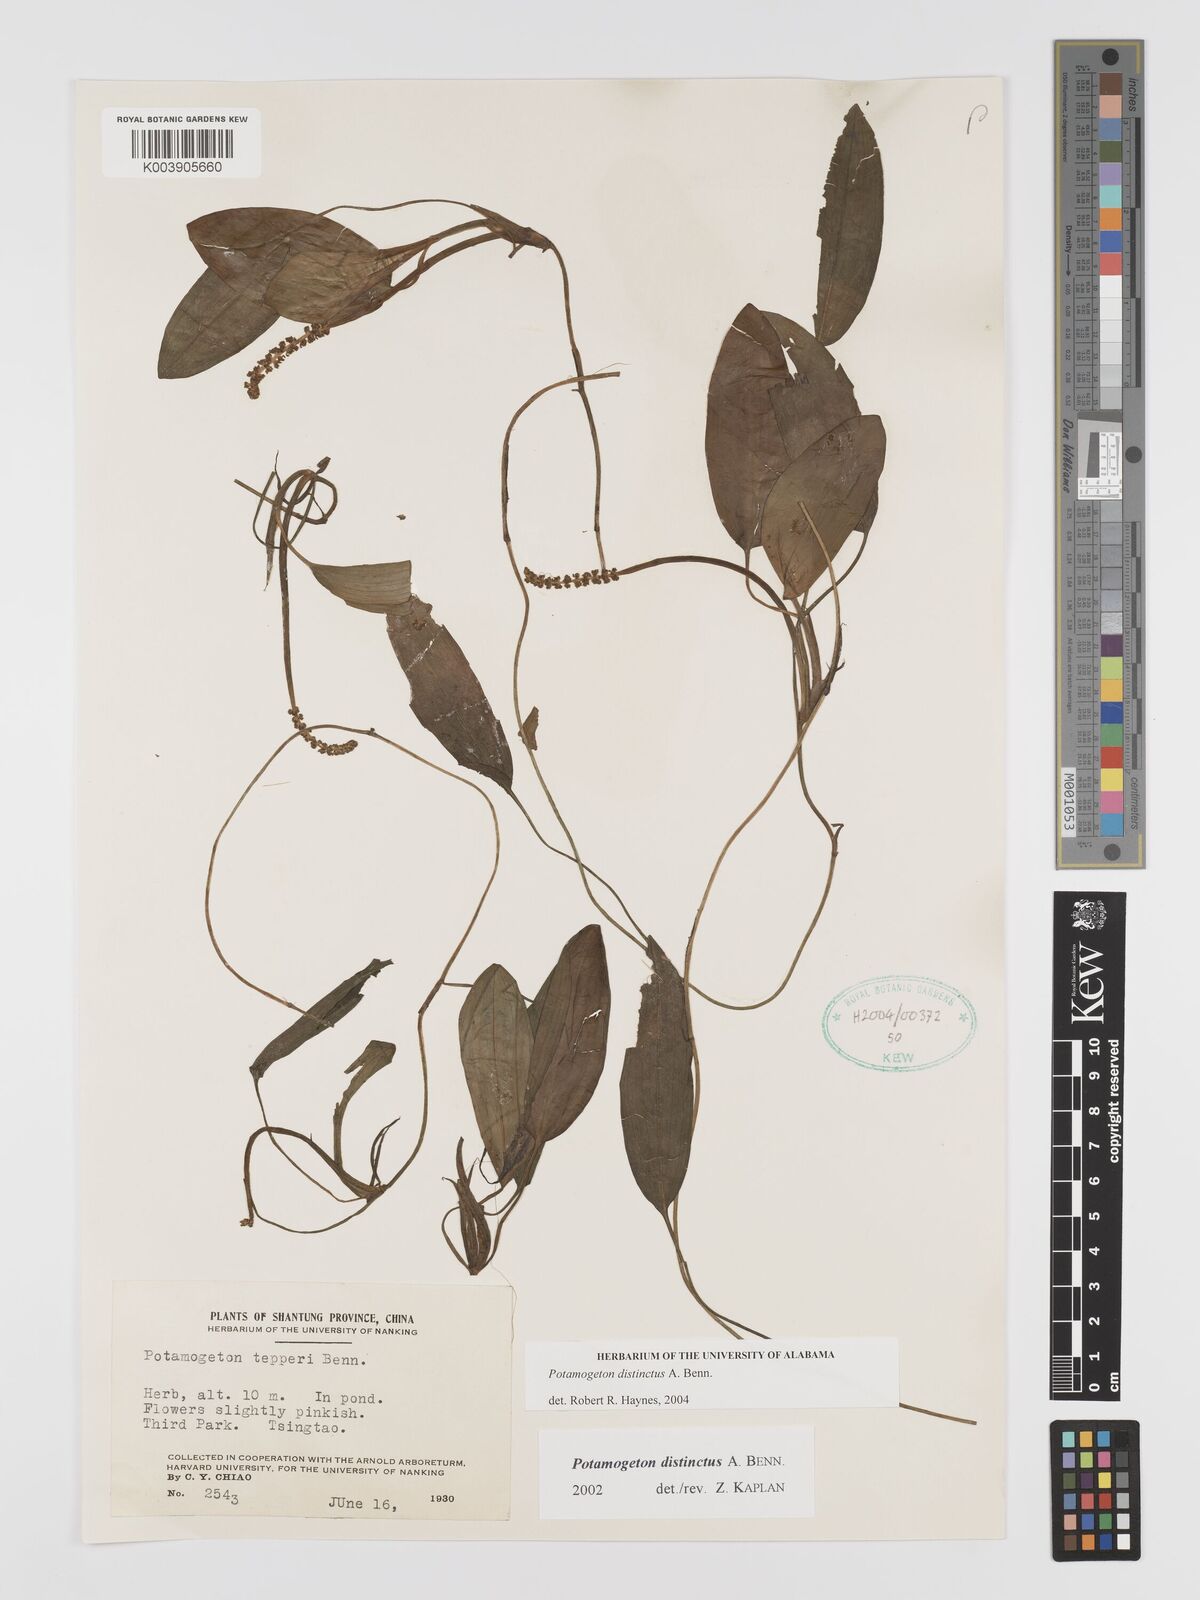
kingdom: Plantae
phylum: Tracheophyta
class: Liliopsida
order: Alismatales
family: Potamogetonaceae
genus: Potamogeton
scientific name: Potamogeton distinctus
